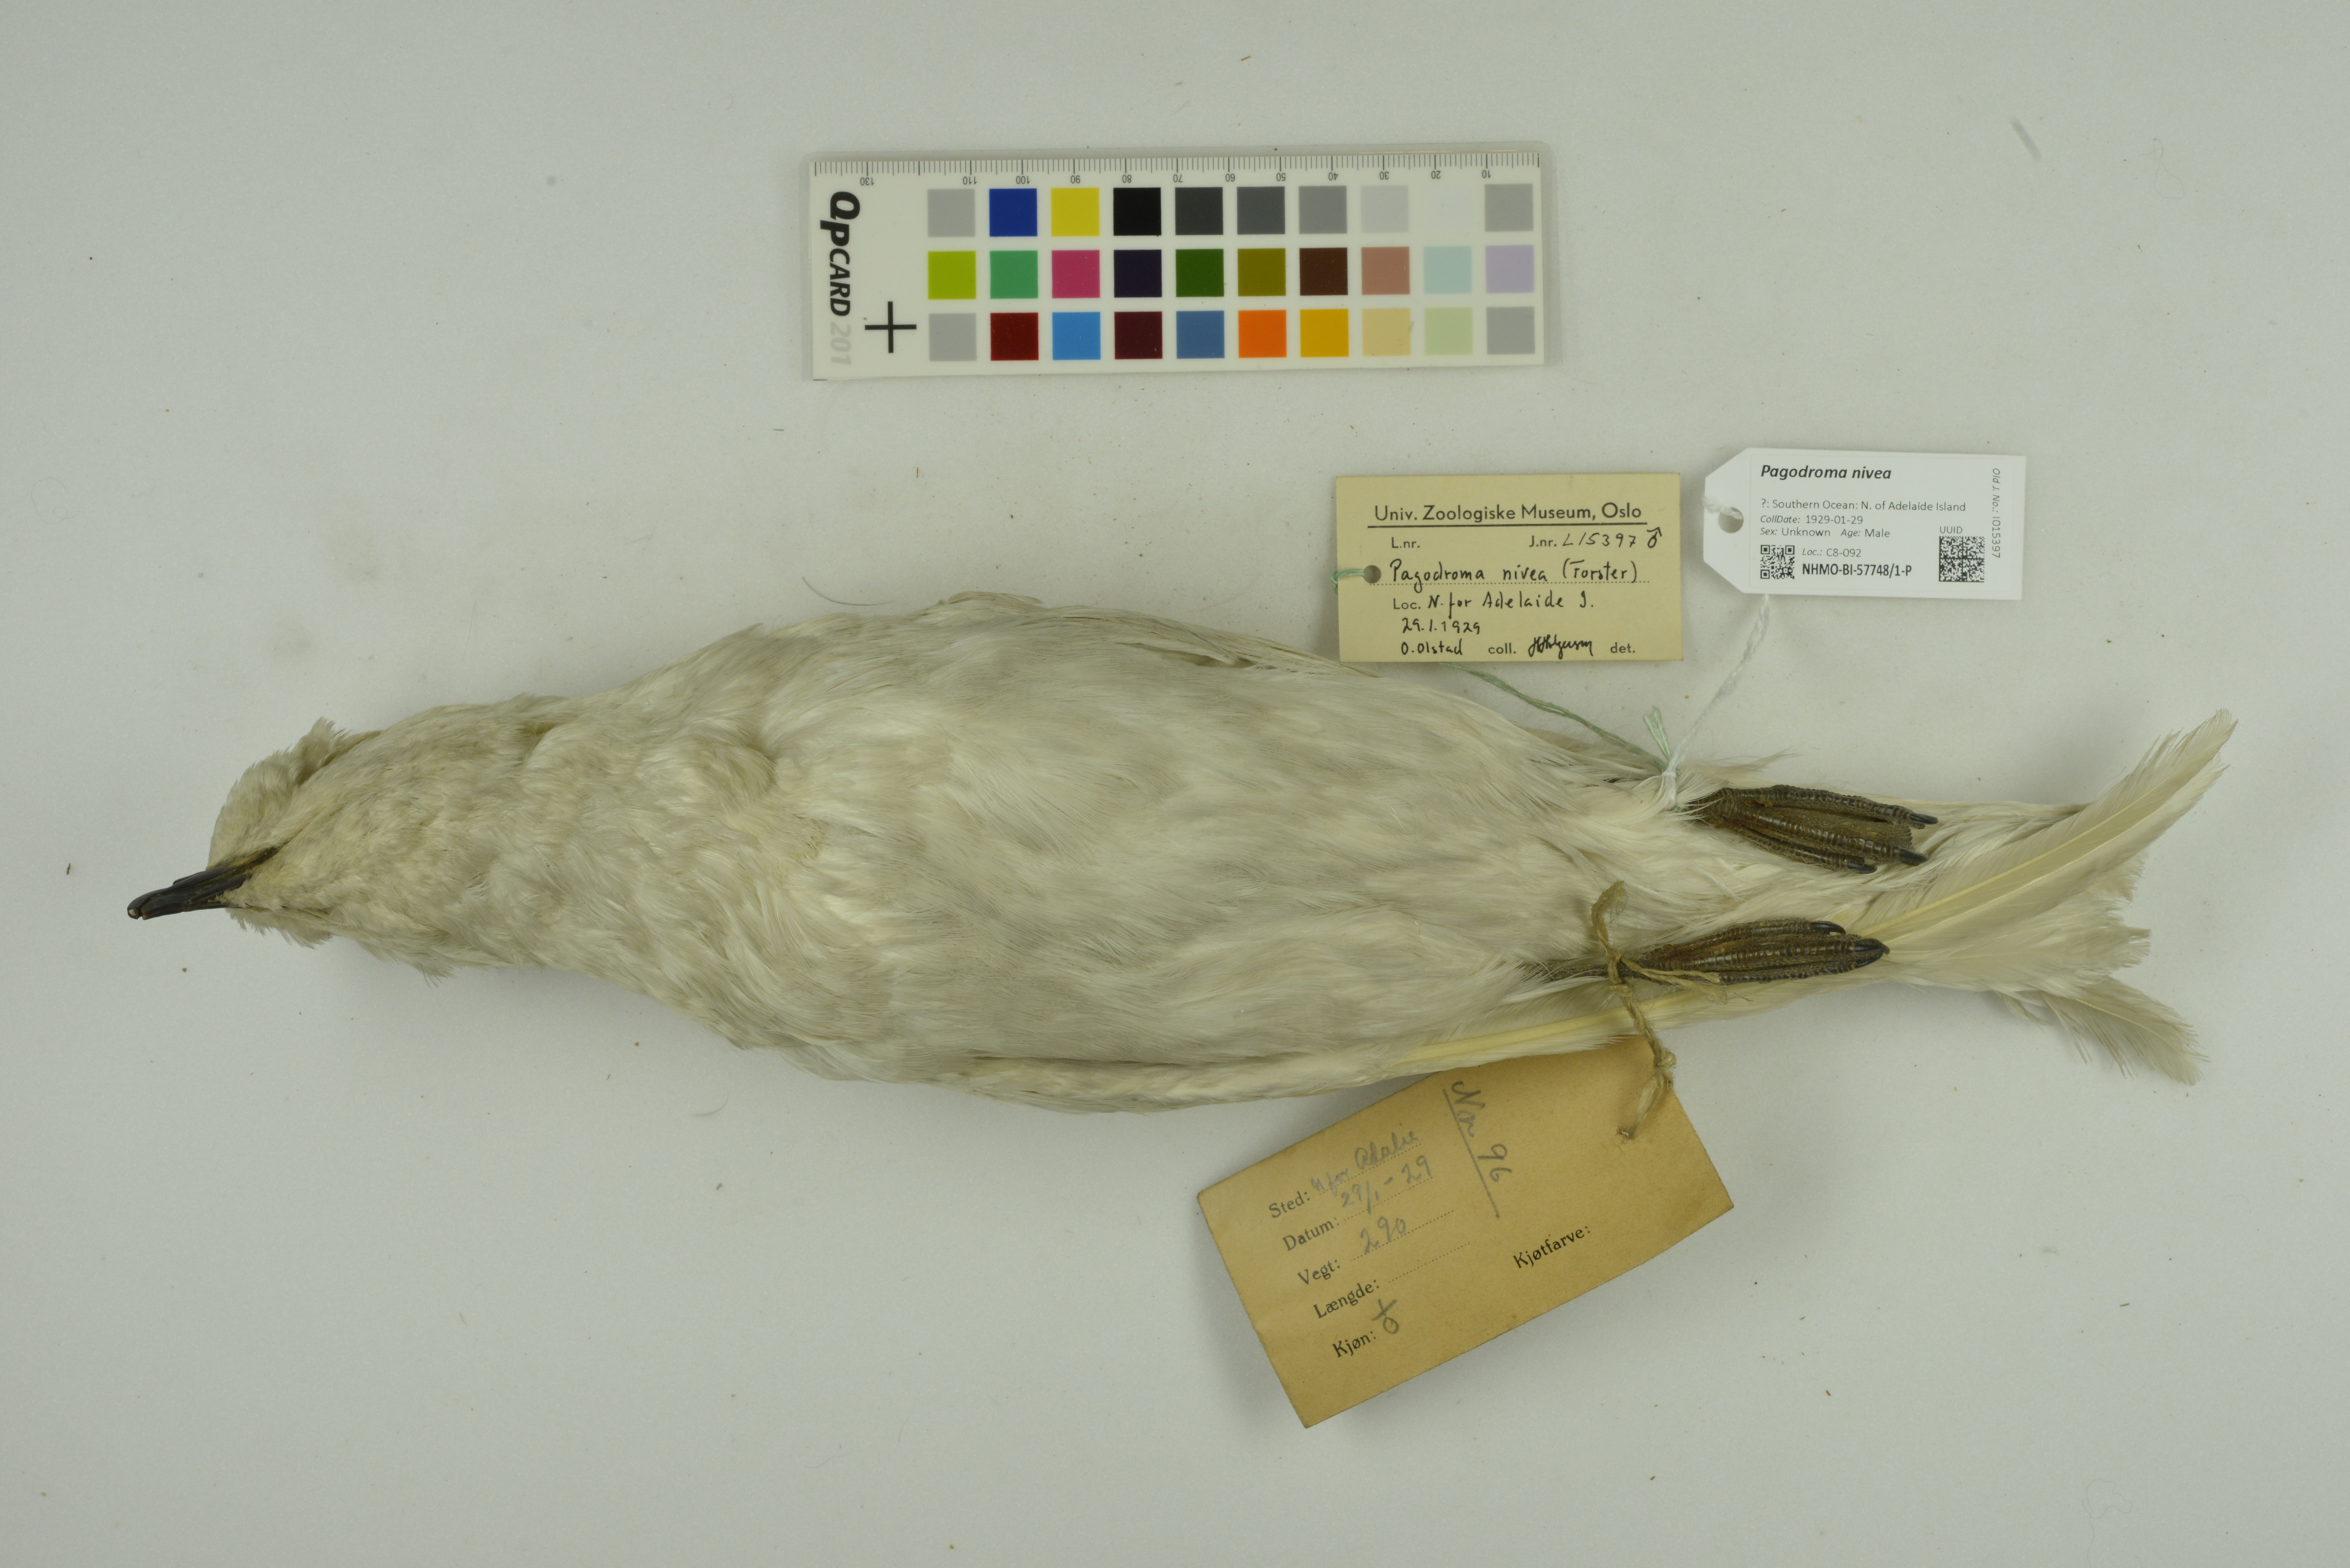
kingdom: Animalia
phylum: Chordata
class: Aves
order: Procellariiformes
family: Procellariidae
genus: Pagodroma
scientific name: Pagodroma nivea
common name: Snow petrel
